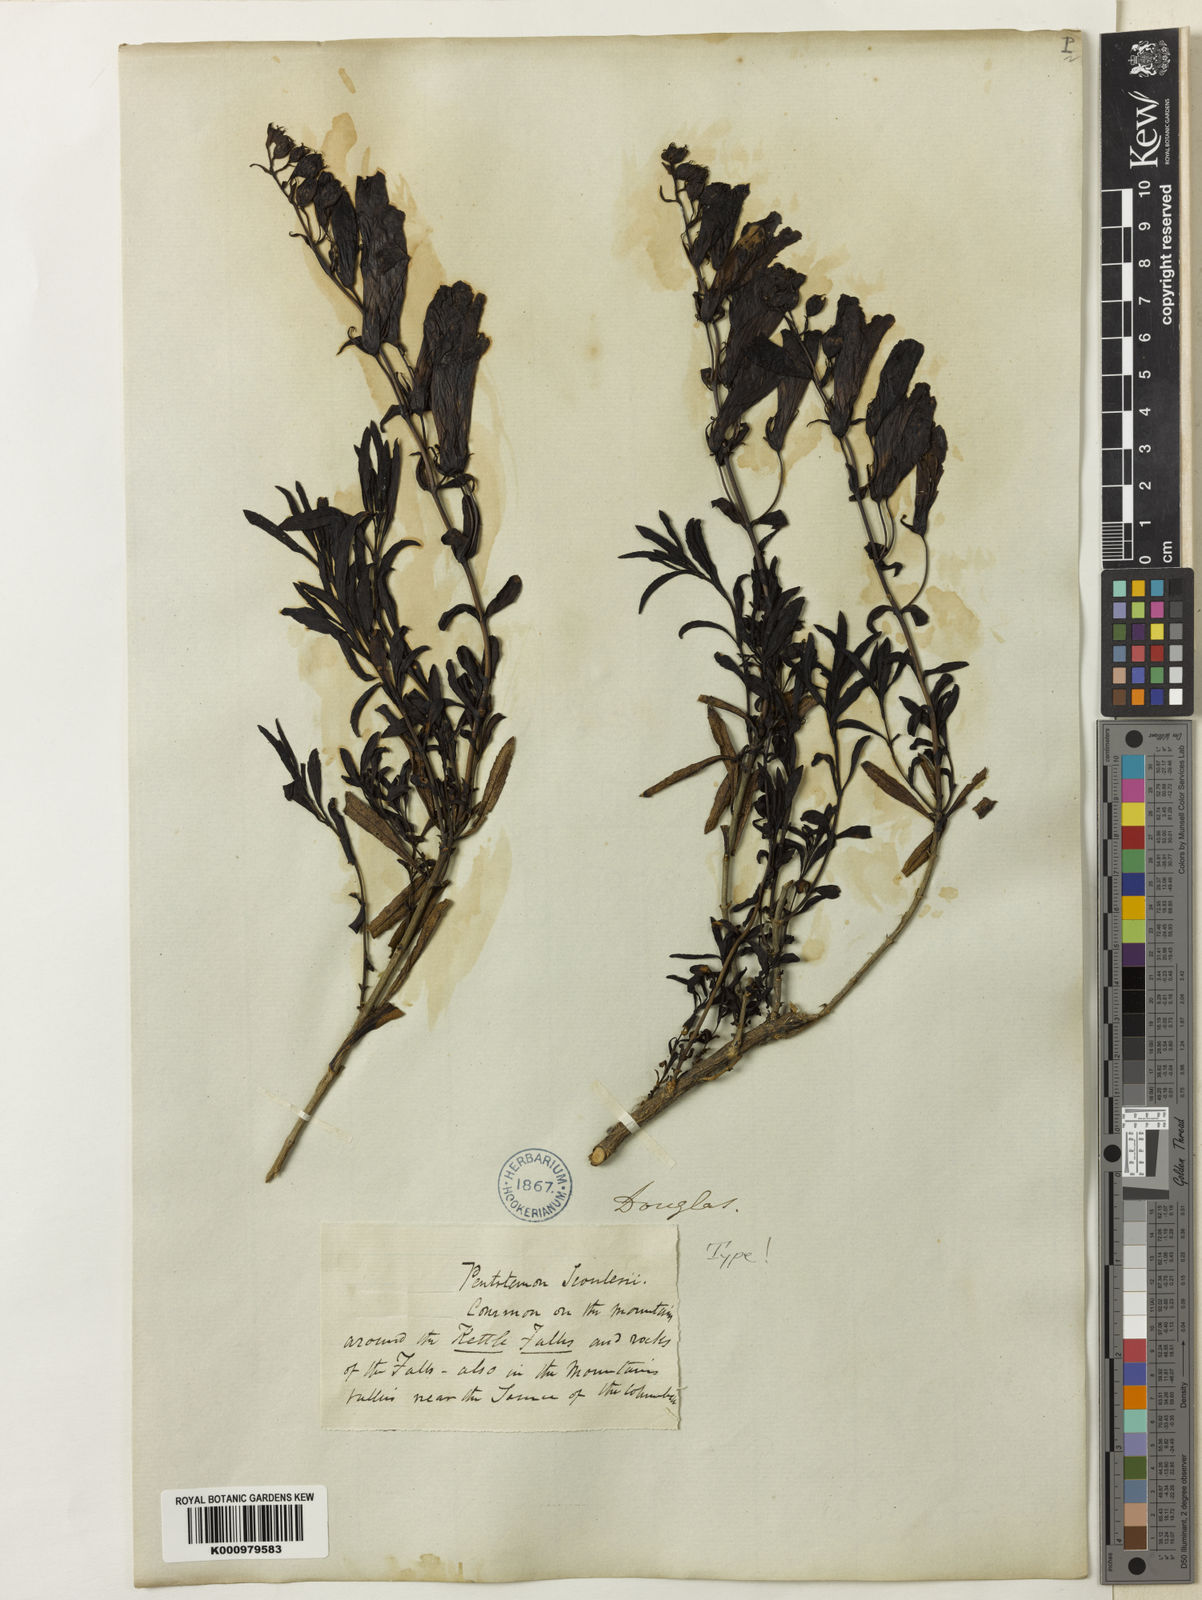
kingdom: Plantae
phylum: Tracheophyta
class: Magnoliopsida
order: Lamiales
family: Plantaginaceae
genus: Penstemon
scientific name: Penstemon
